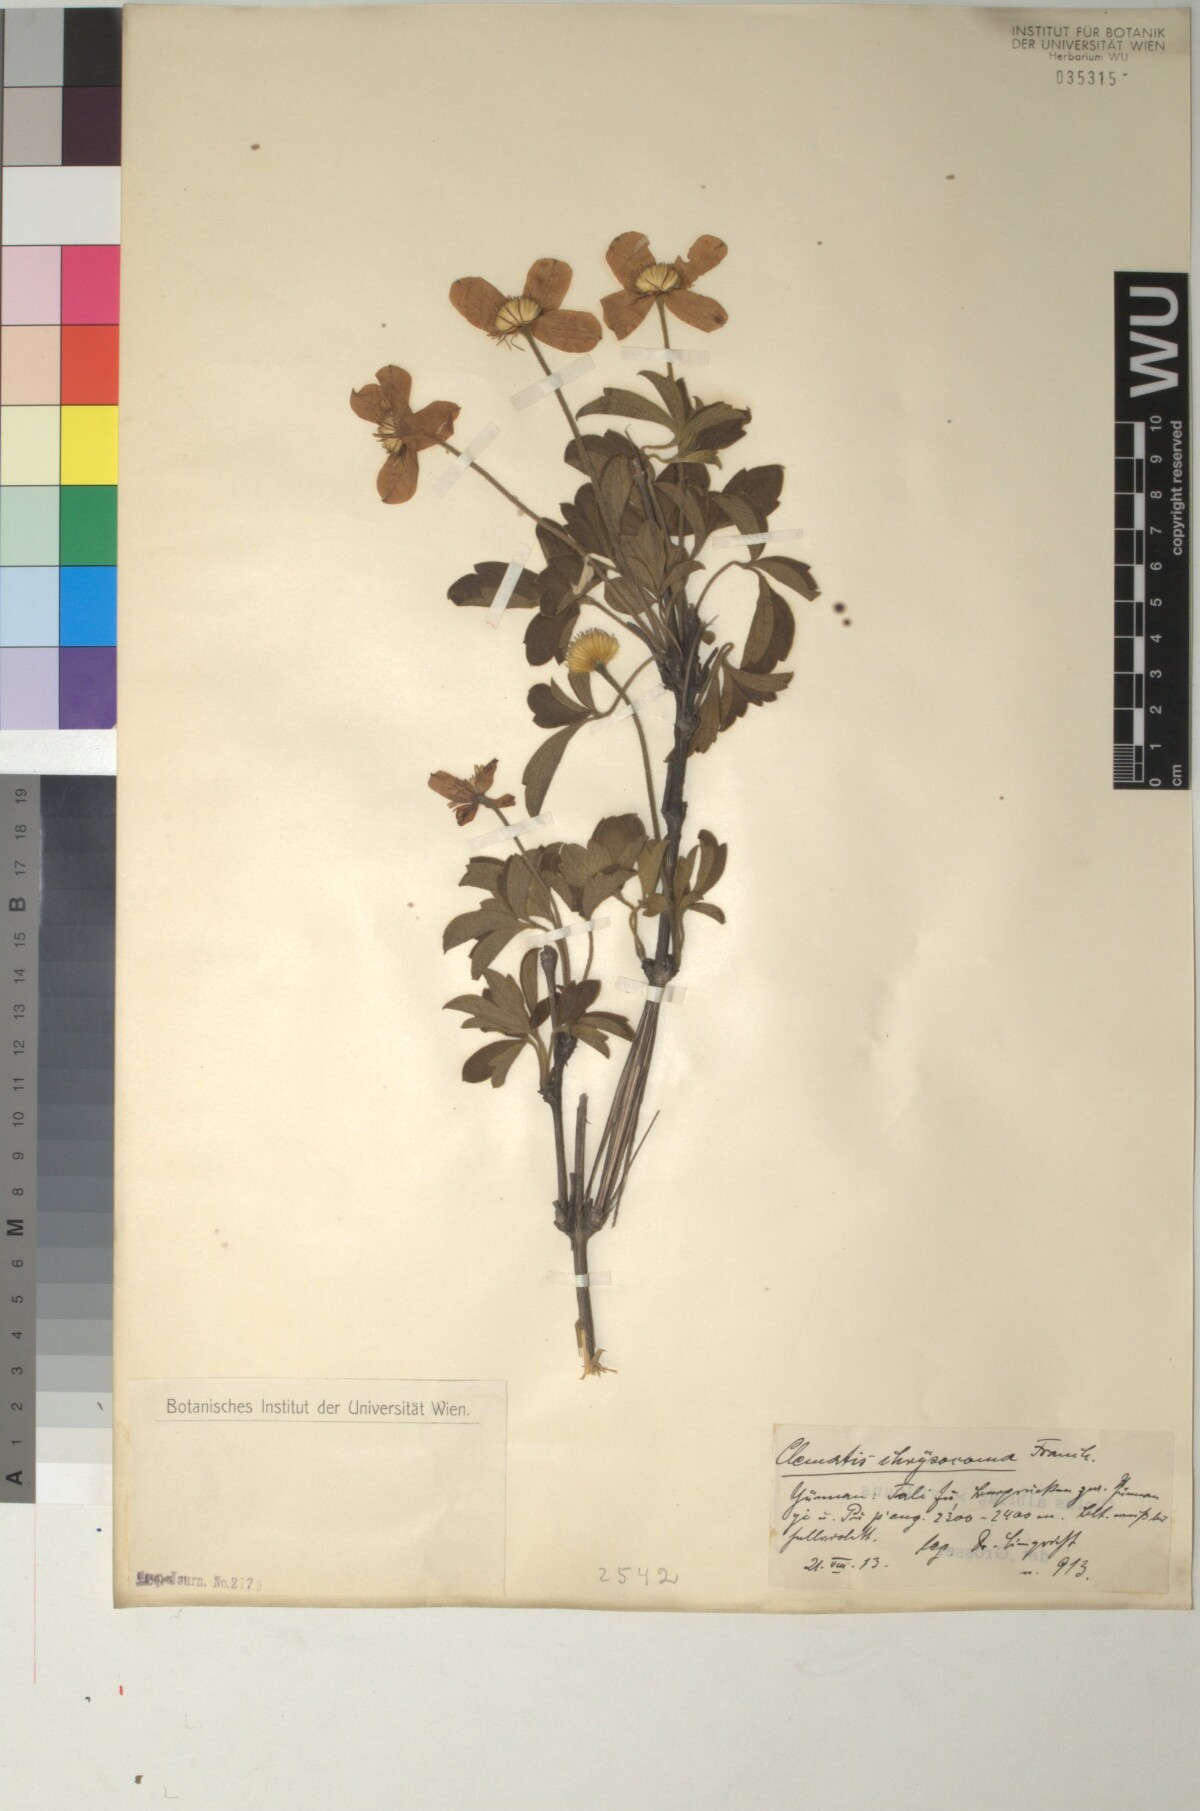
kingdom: Plantae
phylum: Tracheophyta
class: Magnoliopsida
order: Ranunculales
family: Ranunculaceae
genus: Clematis
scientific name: Clematis chrysocoma
